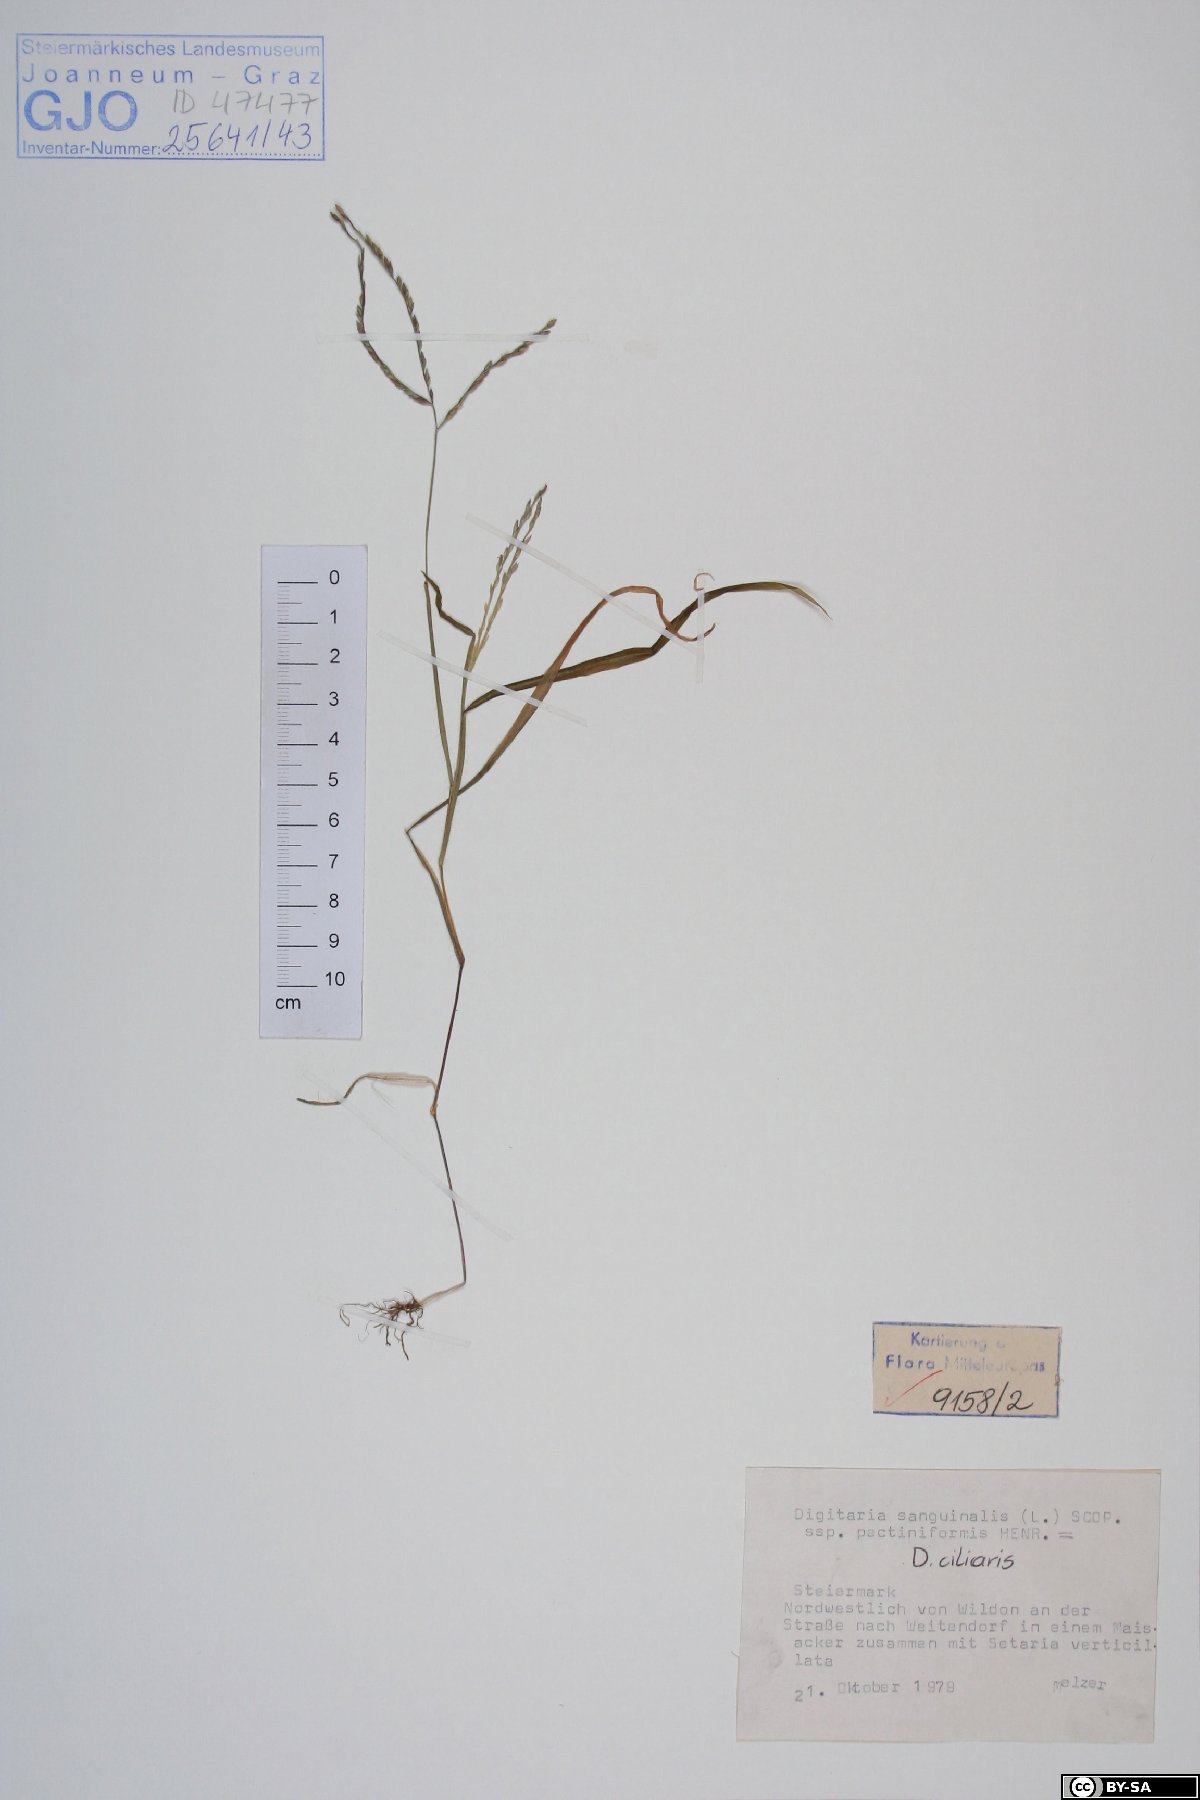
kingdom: Plantae
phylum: Tracheophyta
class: Liliopsida
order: Poales
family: Poaceae
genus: Digitaria
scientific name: Digitaria sanguinalis
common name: Hairy crabgrass
